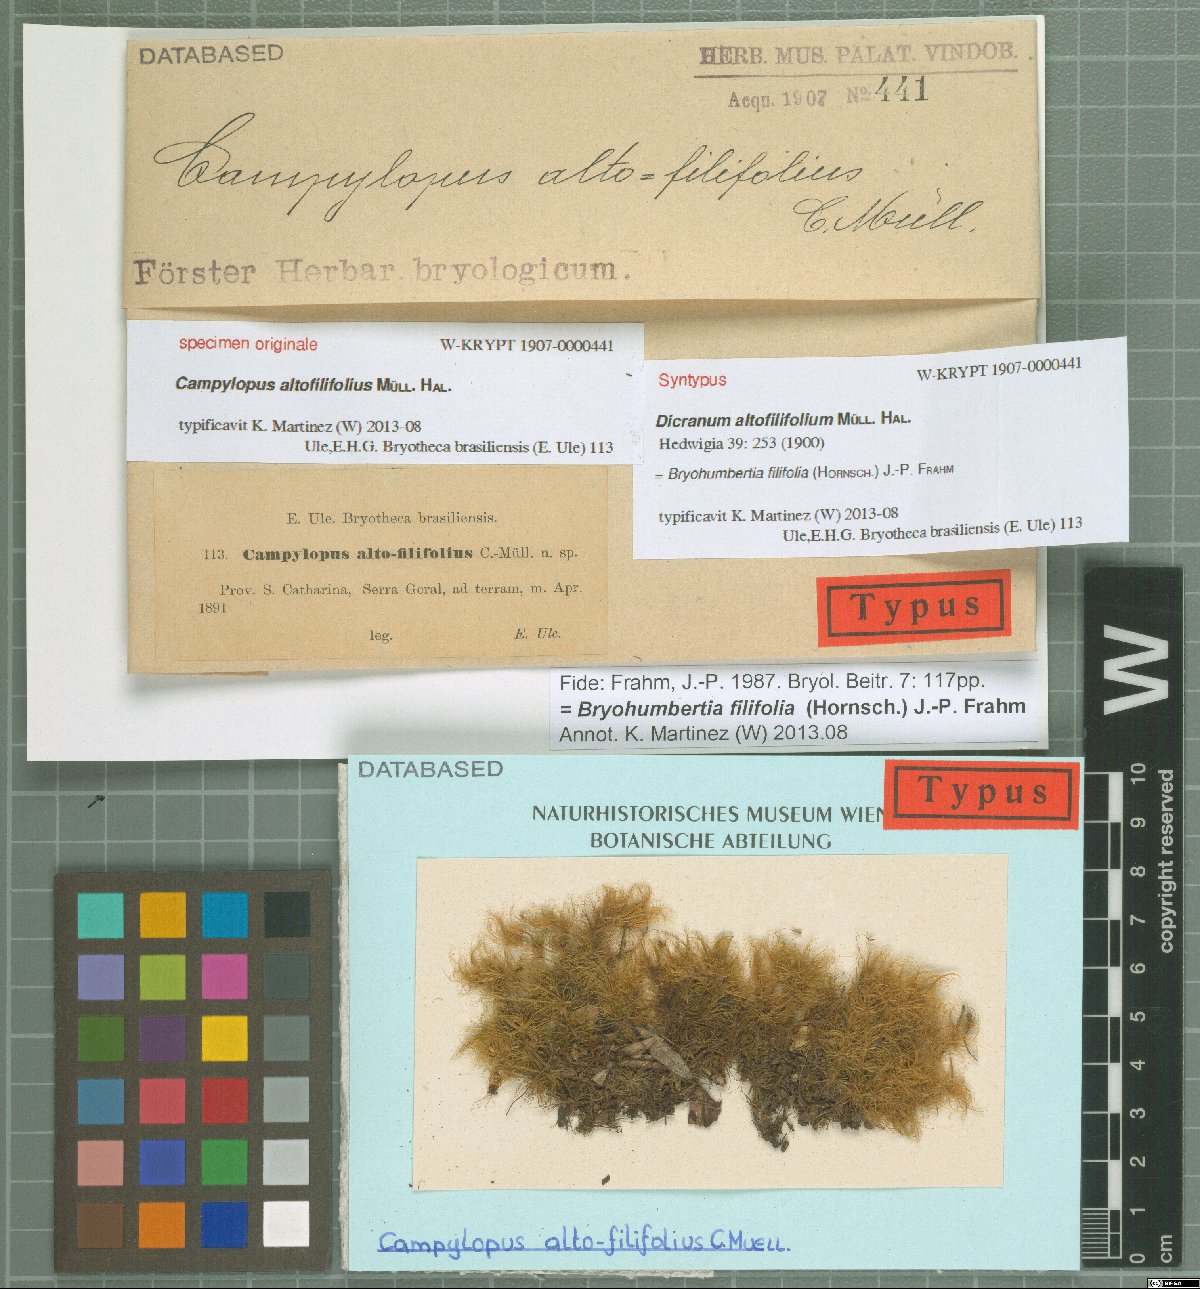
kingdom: Plantae
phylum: Bryophyta
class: Bryopsida
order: Dicranales
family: Leucobryaceae
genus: Campylopus
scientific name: Campylopus filifolius
